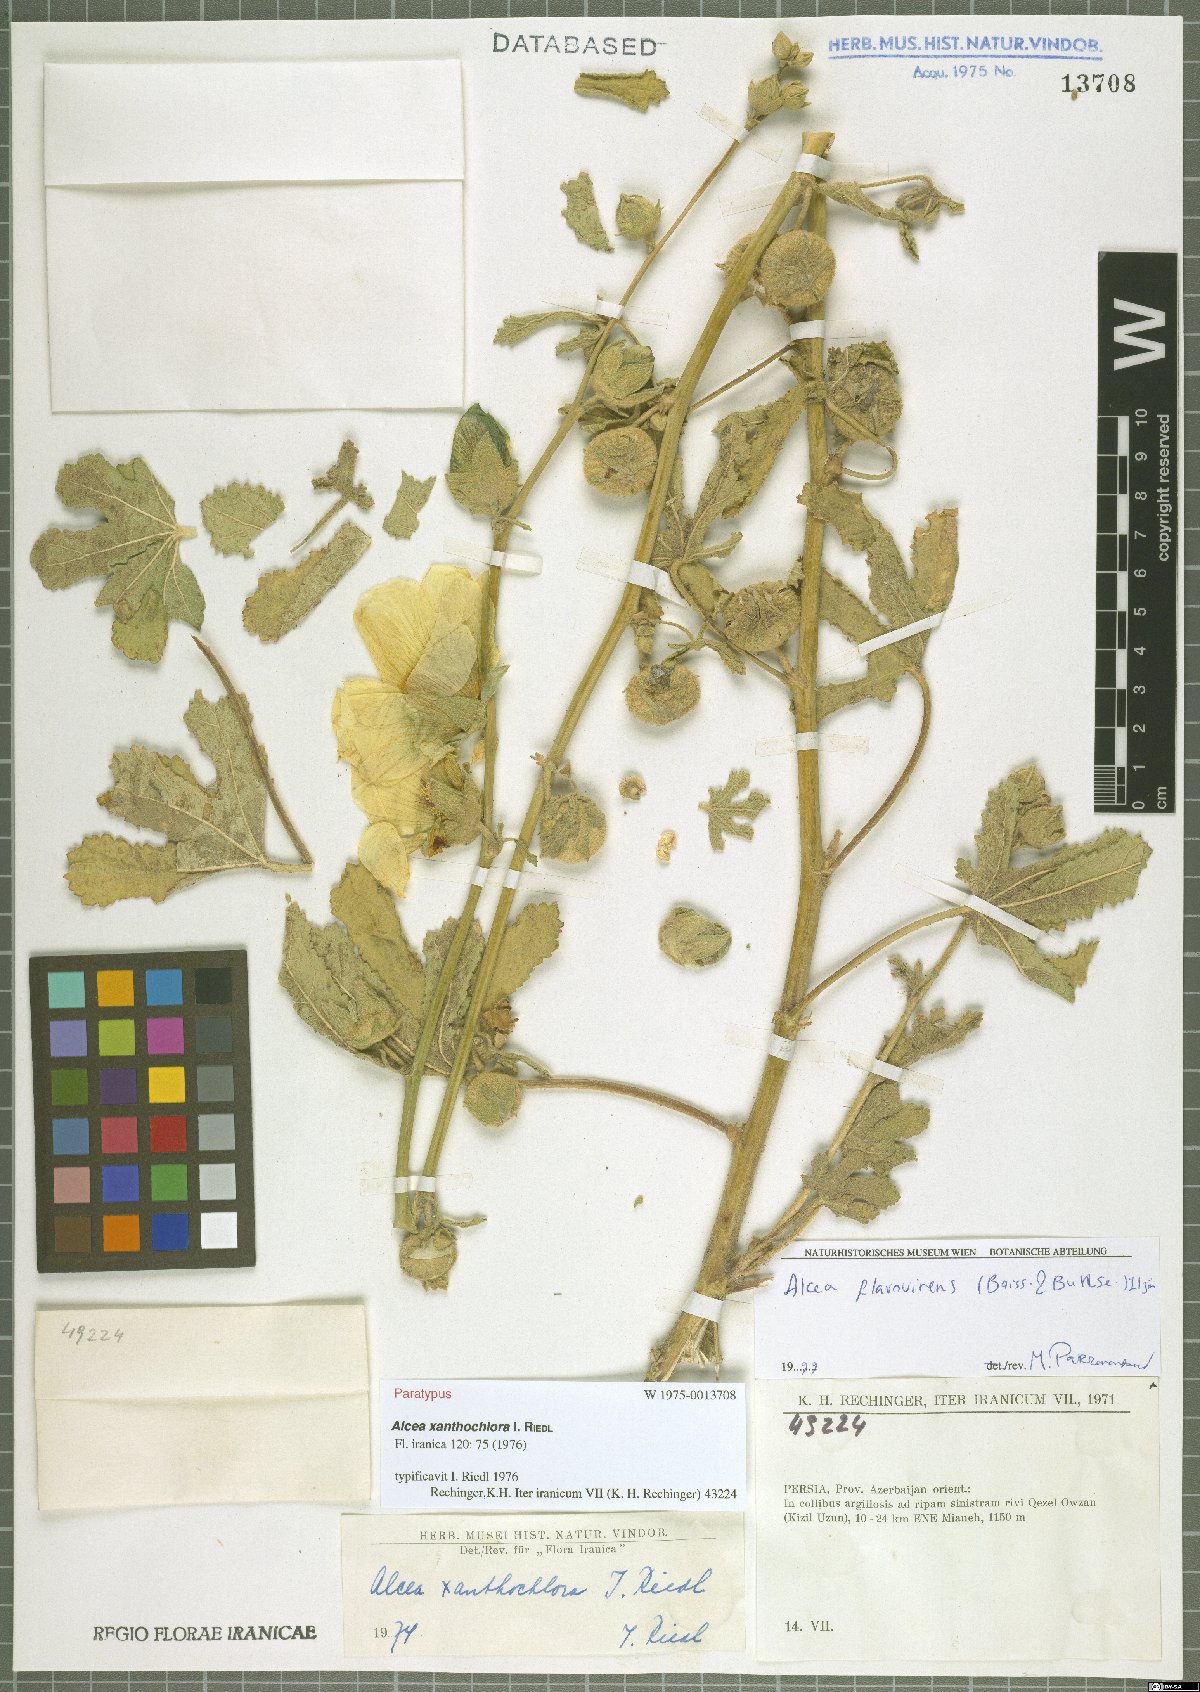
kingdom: Plantae
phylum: Tracheophyta
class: Magnoliopsida
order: Malvales
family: Malvaceae
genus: Alcea
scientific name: Alcea flavovirens
